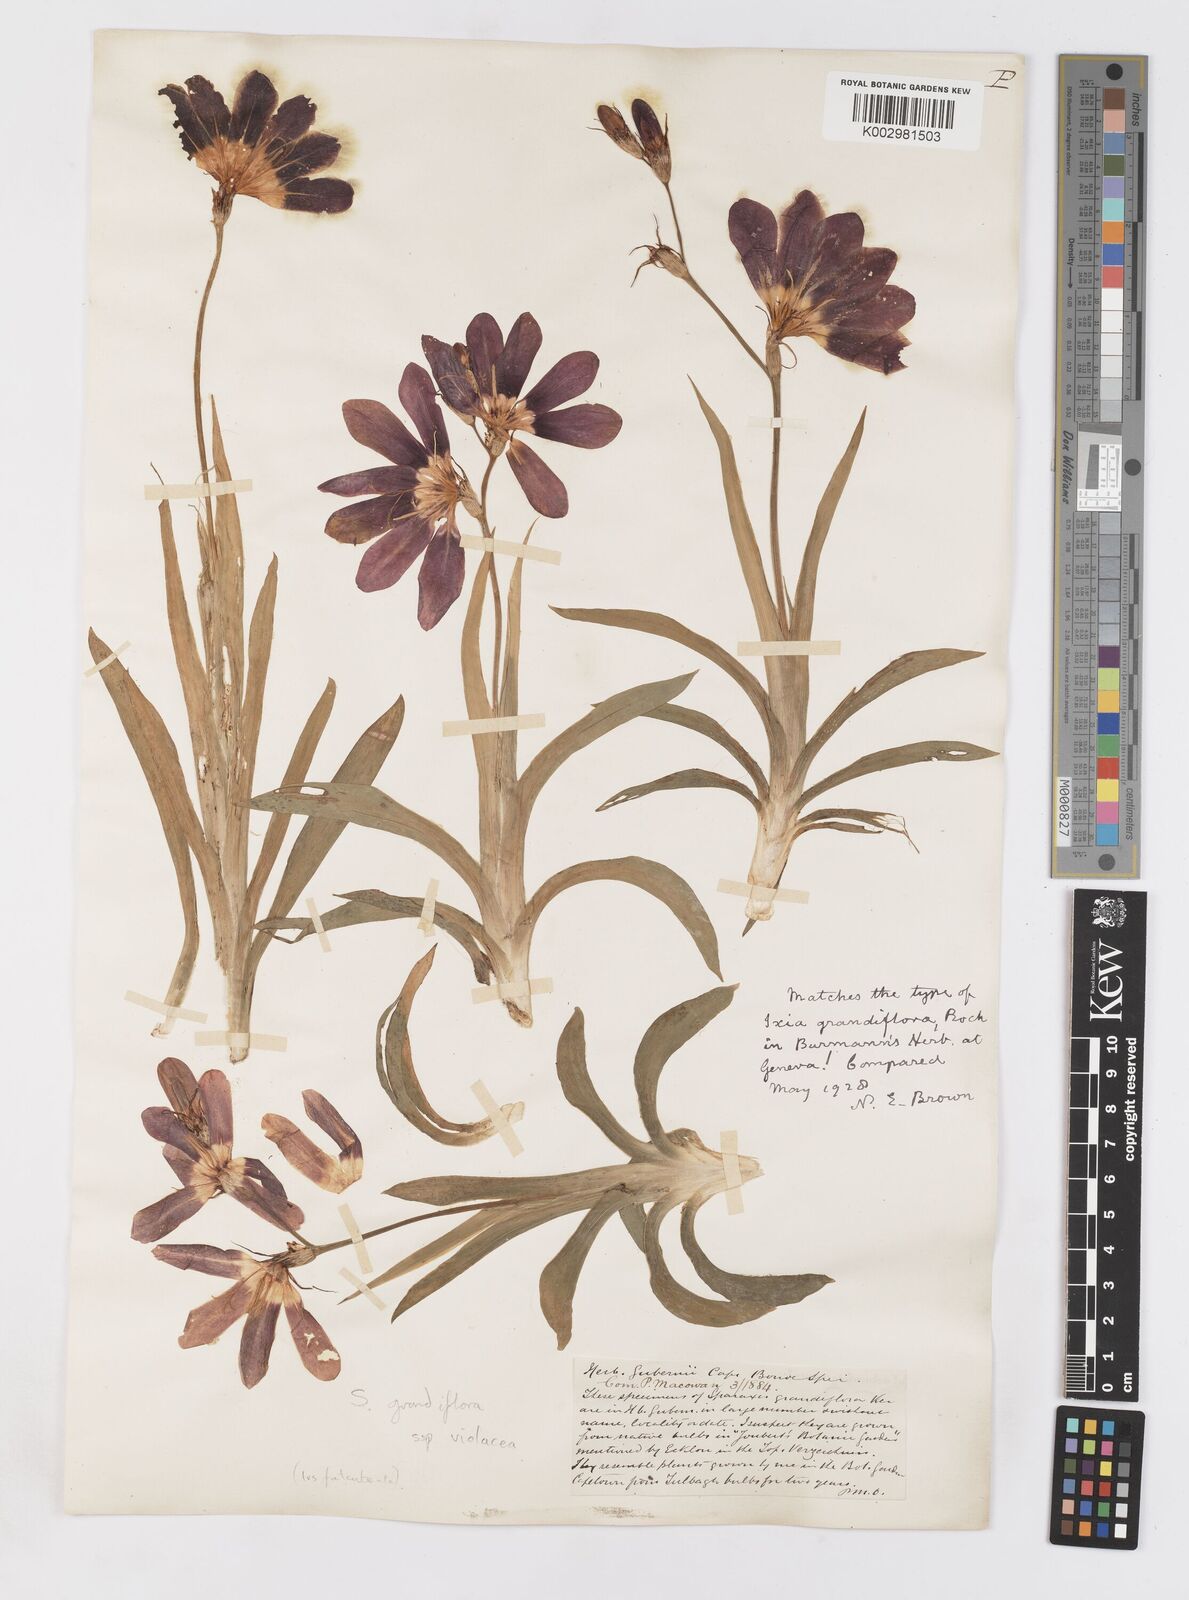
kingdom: Plantae
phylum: Tracheophyta
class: Liliopsida
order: Asparagales
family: Iridaceae
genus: Sparaxis
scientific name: Sparaxis grandiflora
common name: Plain harlequin-flower
